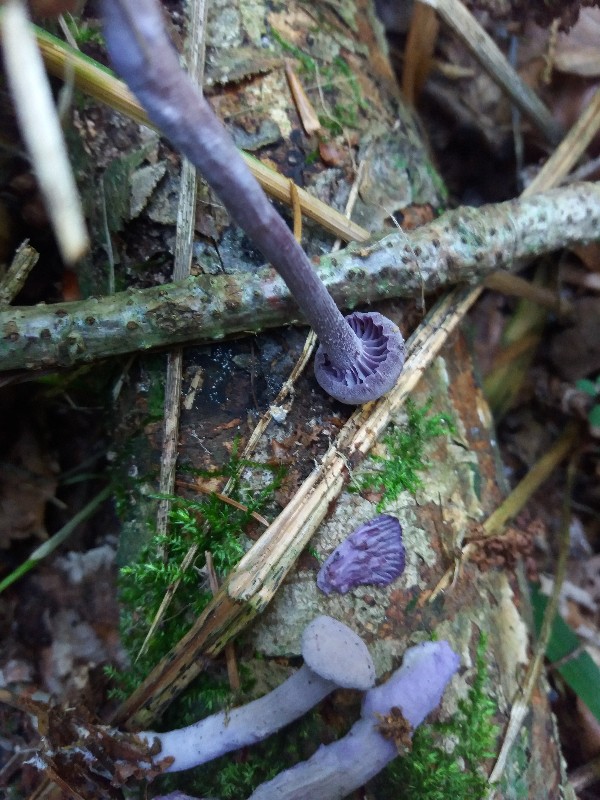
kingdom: Fungi
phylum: Basidiomycota
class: Agaricomycetes
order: Agaricales
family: Hydnangiaceae
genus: Laccaria
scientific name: Laccaria amethystina
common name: violet ametysthat
